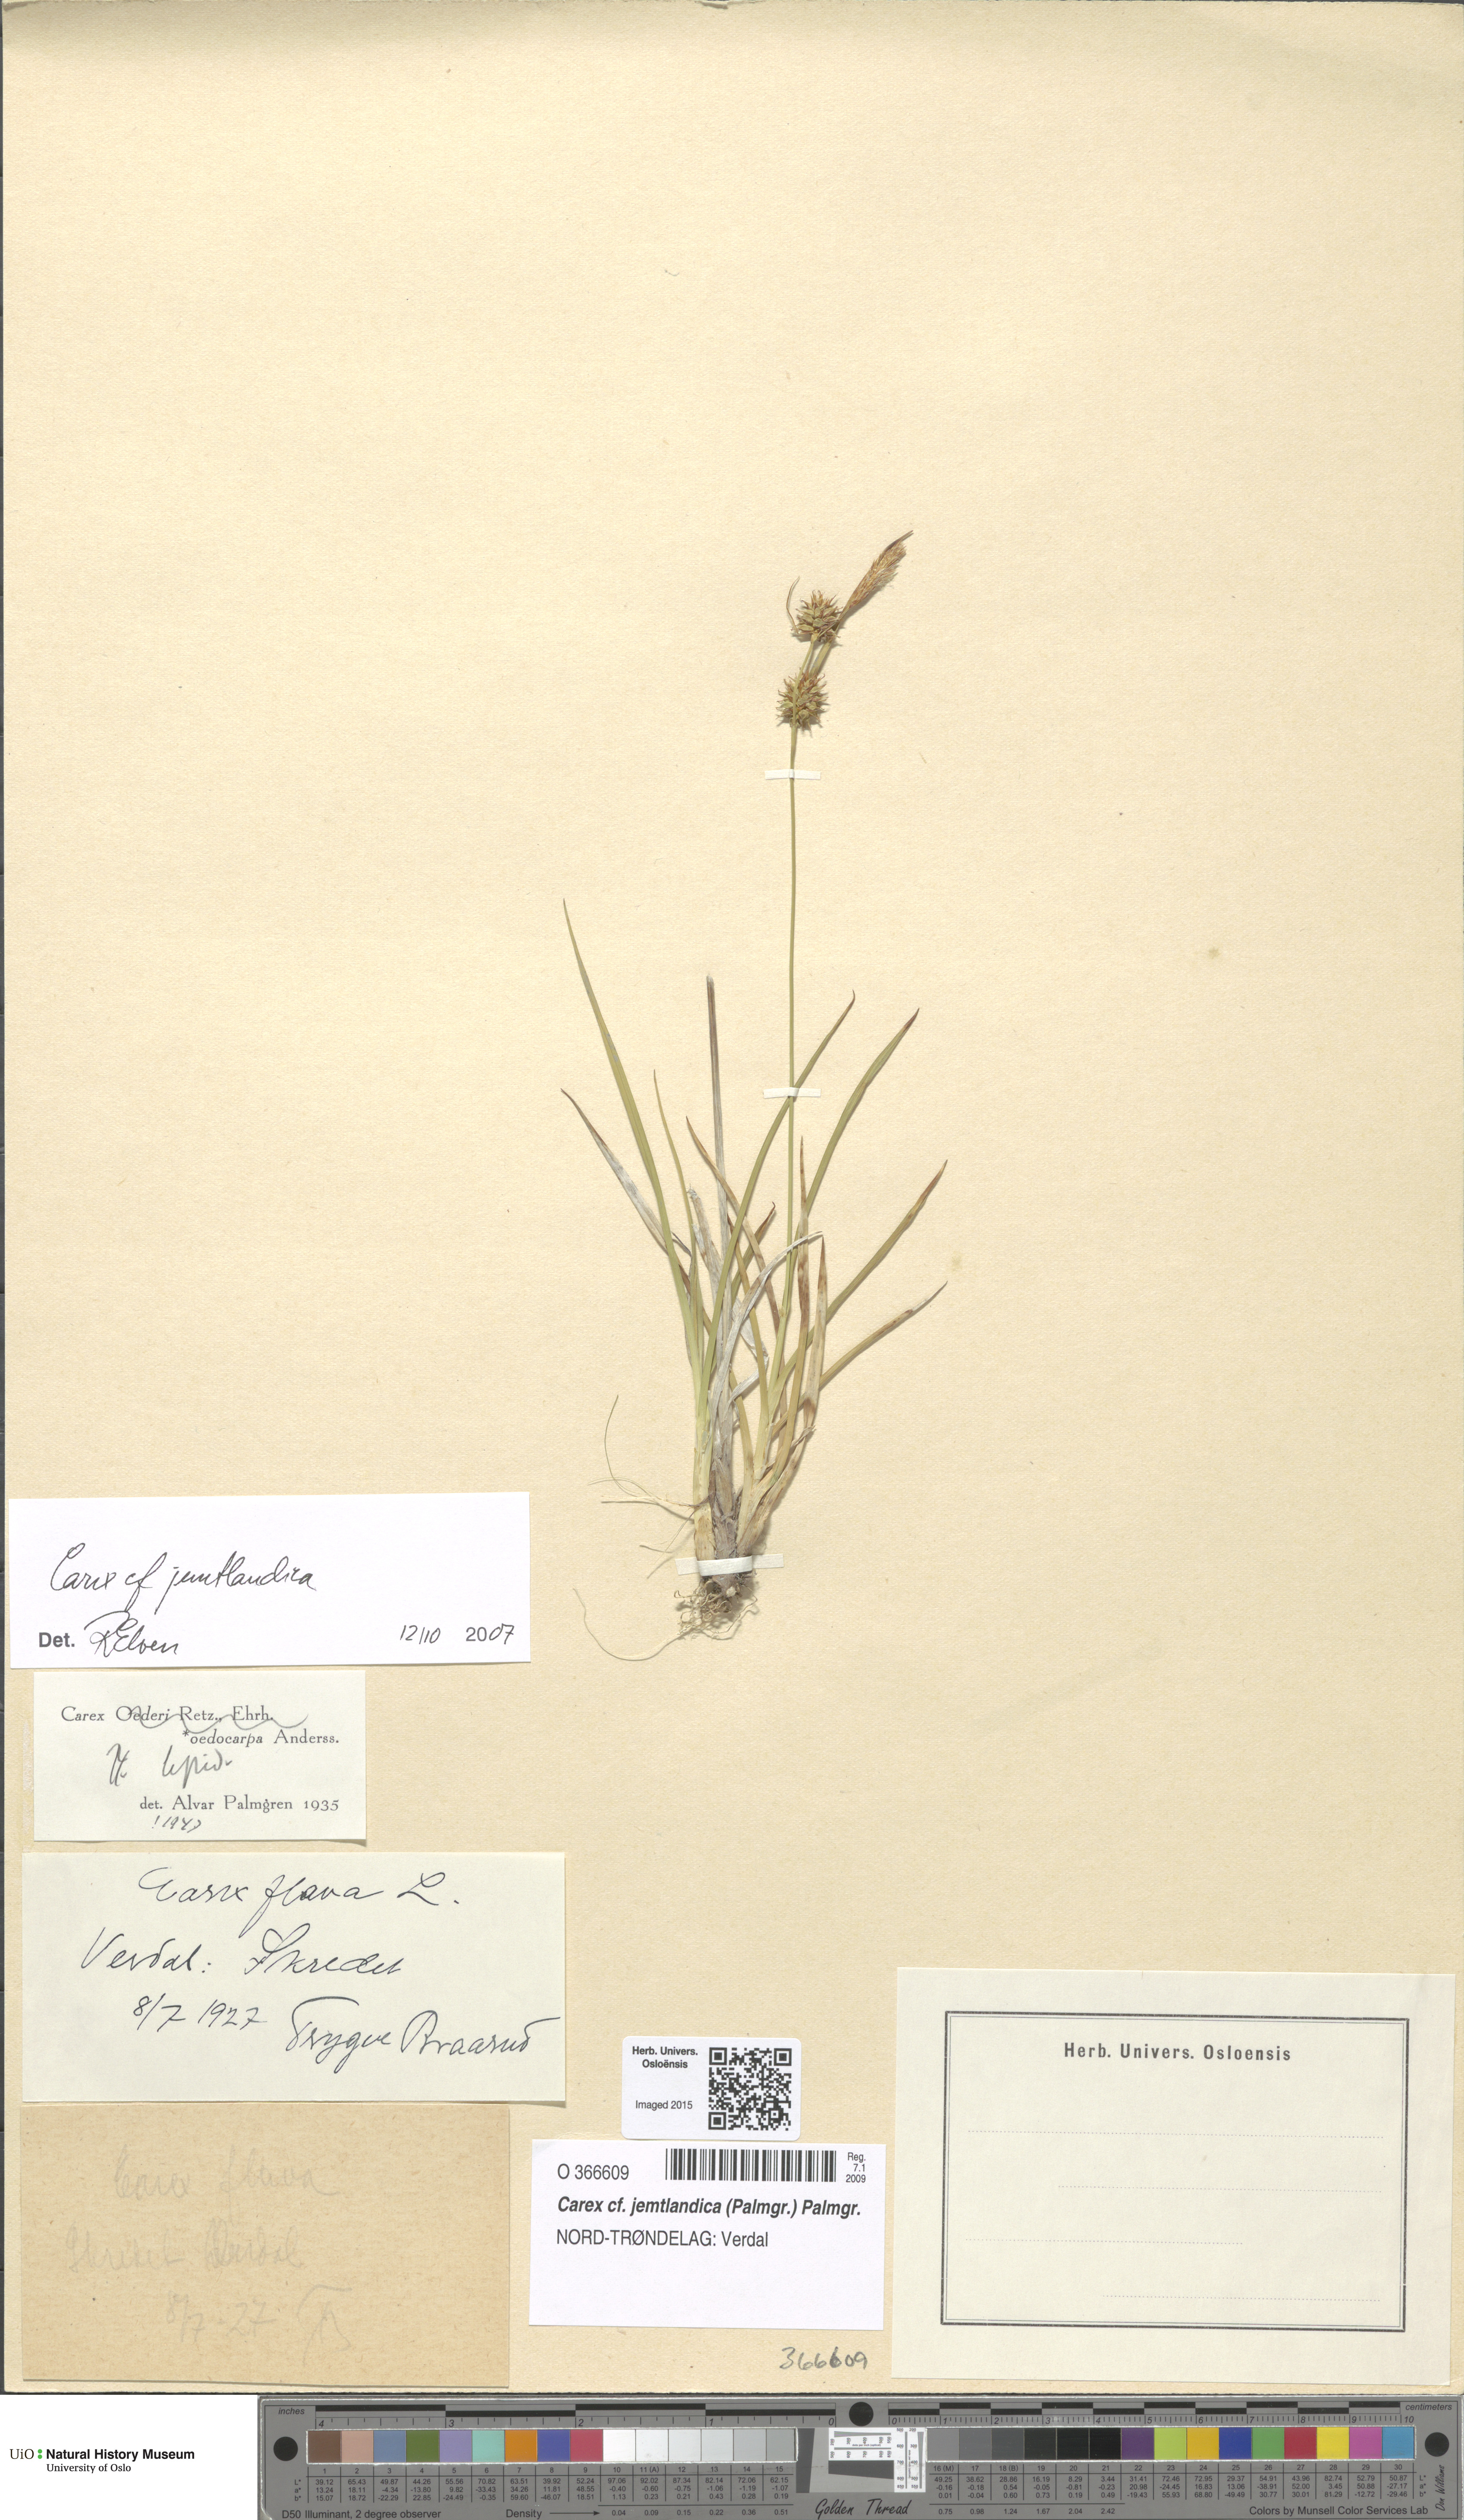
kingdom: Plantae
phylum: Tracheophyta
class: Liliopsida
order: Poales
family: Cyperaceae
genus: Carex
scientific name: Carex lepidocarpa
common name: Long-stalked yellow-sedge
